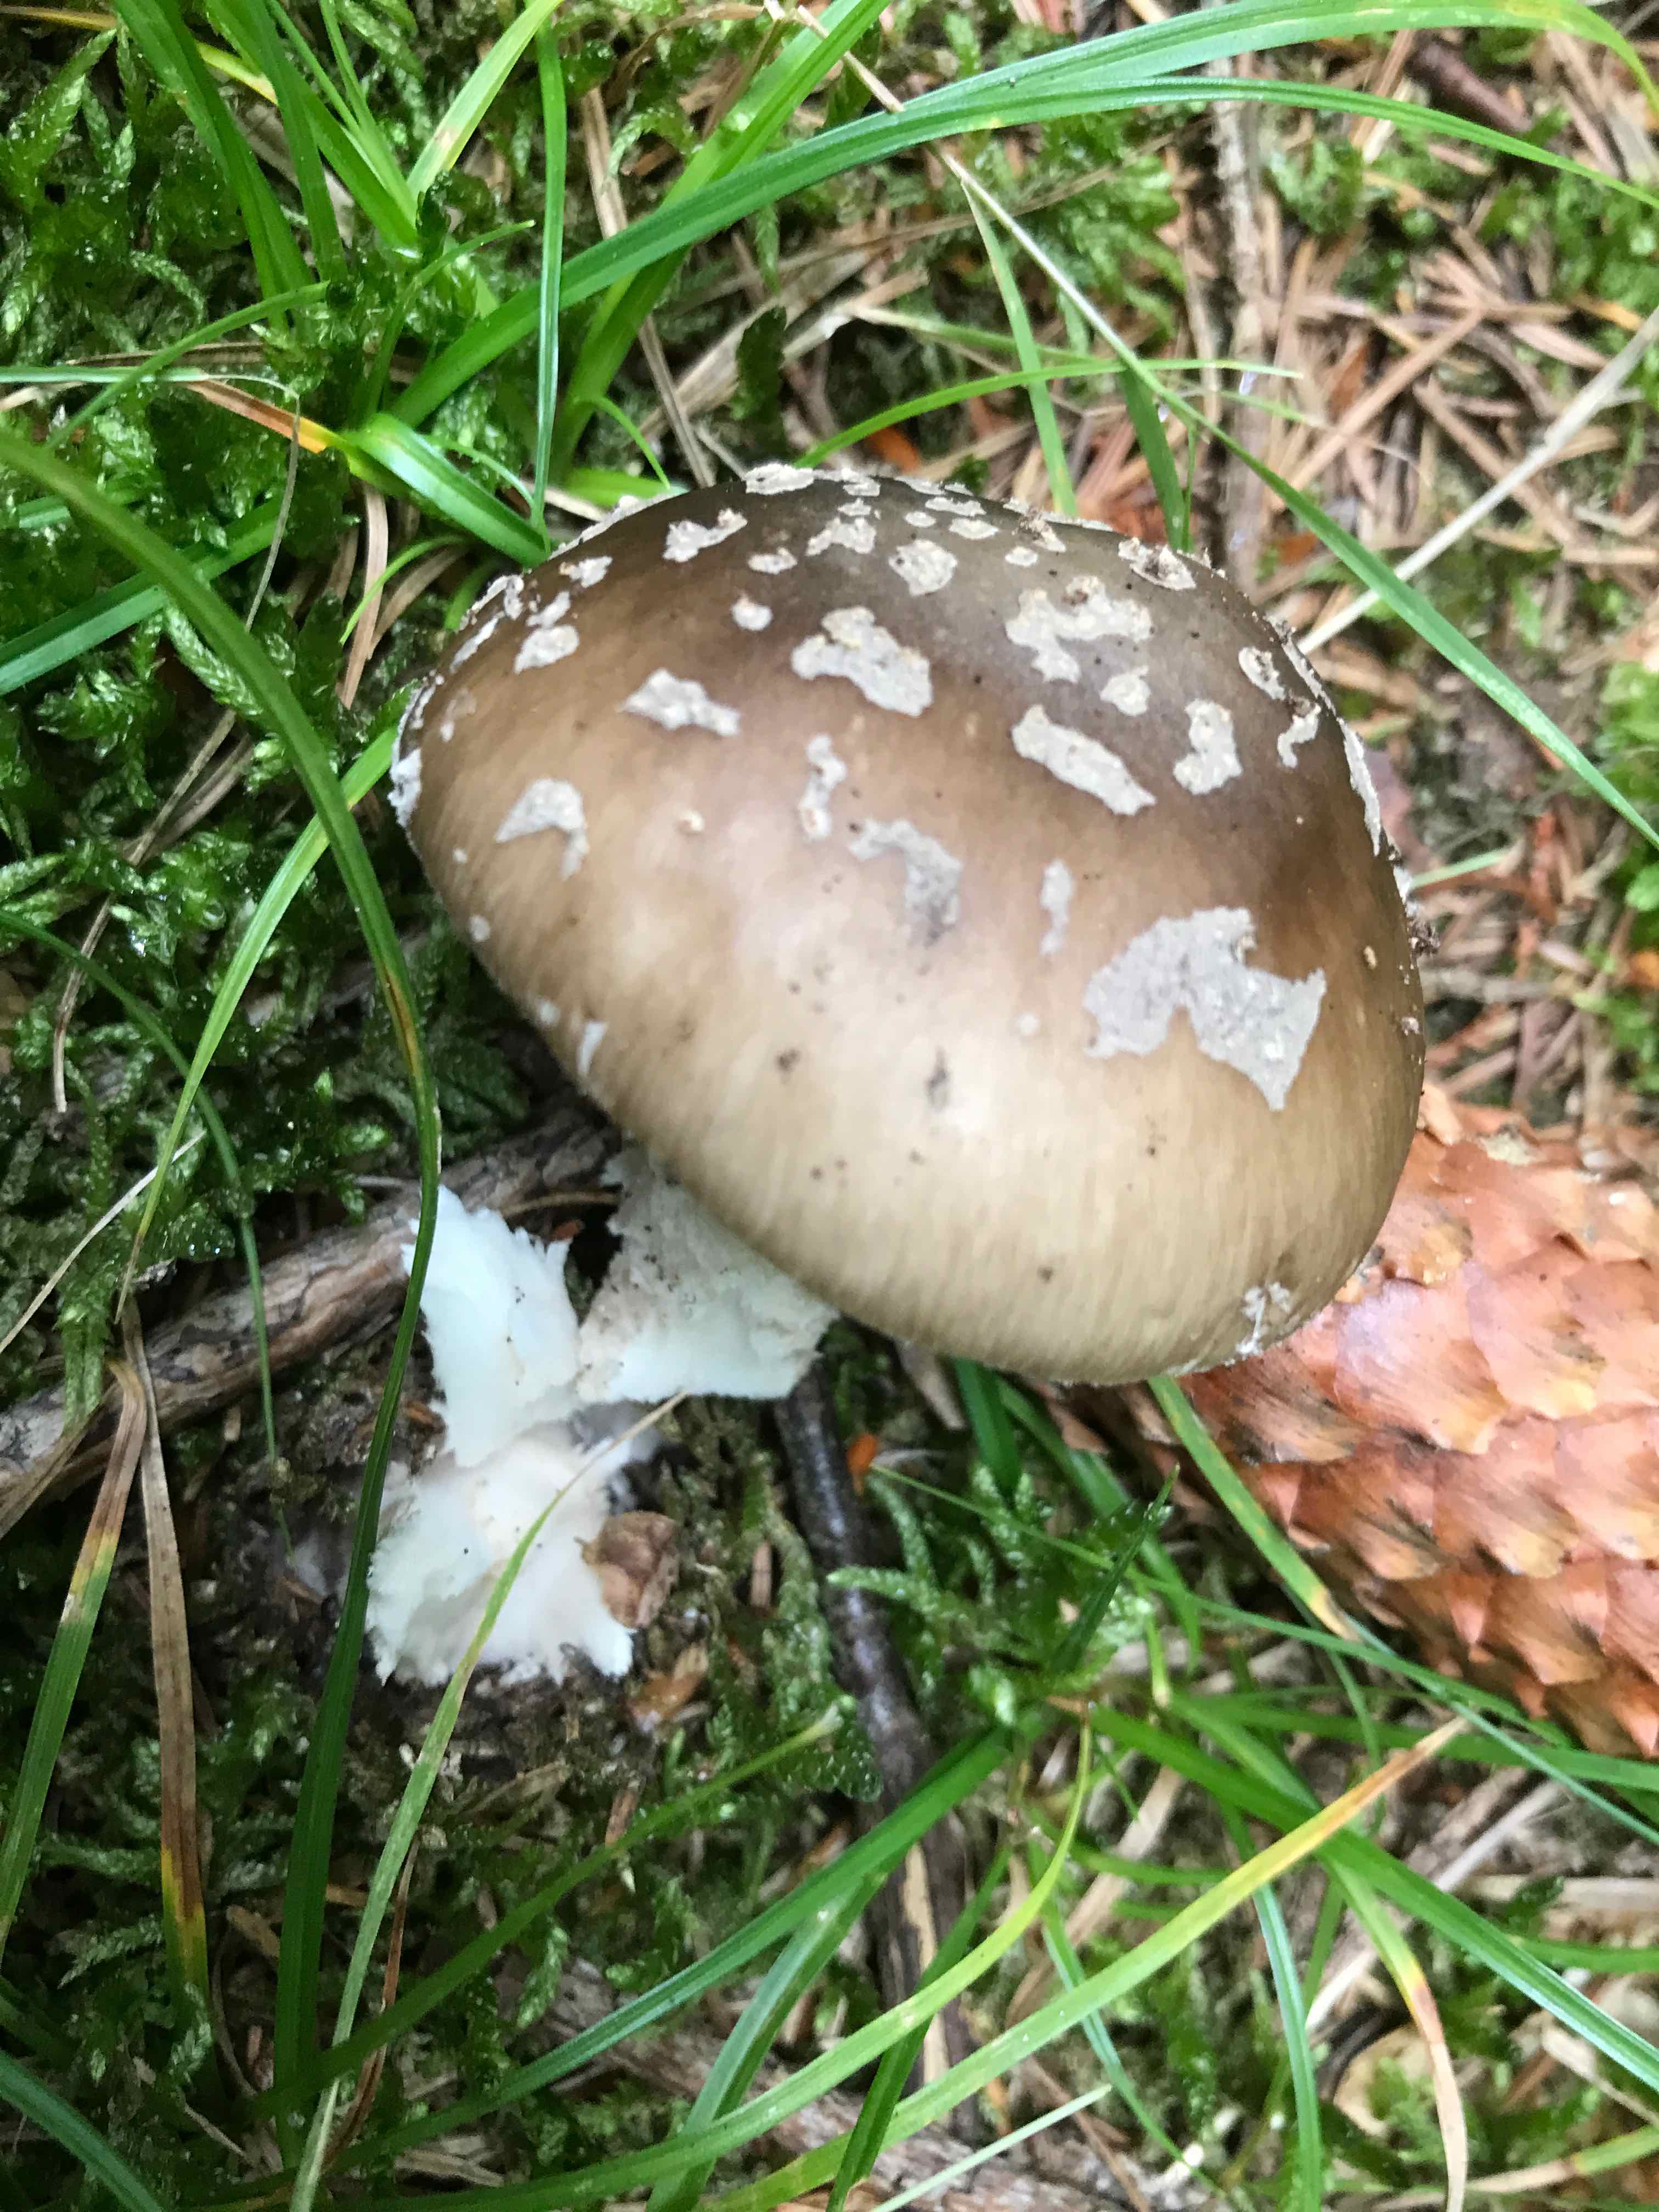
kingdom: Fungi
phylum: Basidiomycota
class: Agaricomycetes
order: Agaricales
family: Amanitaceae
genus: Amanita
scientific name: Amanita
